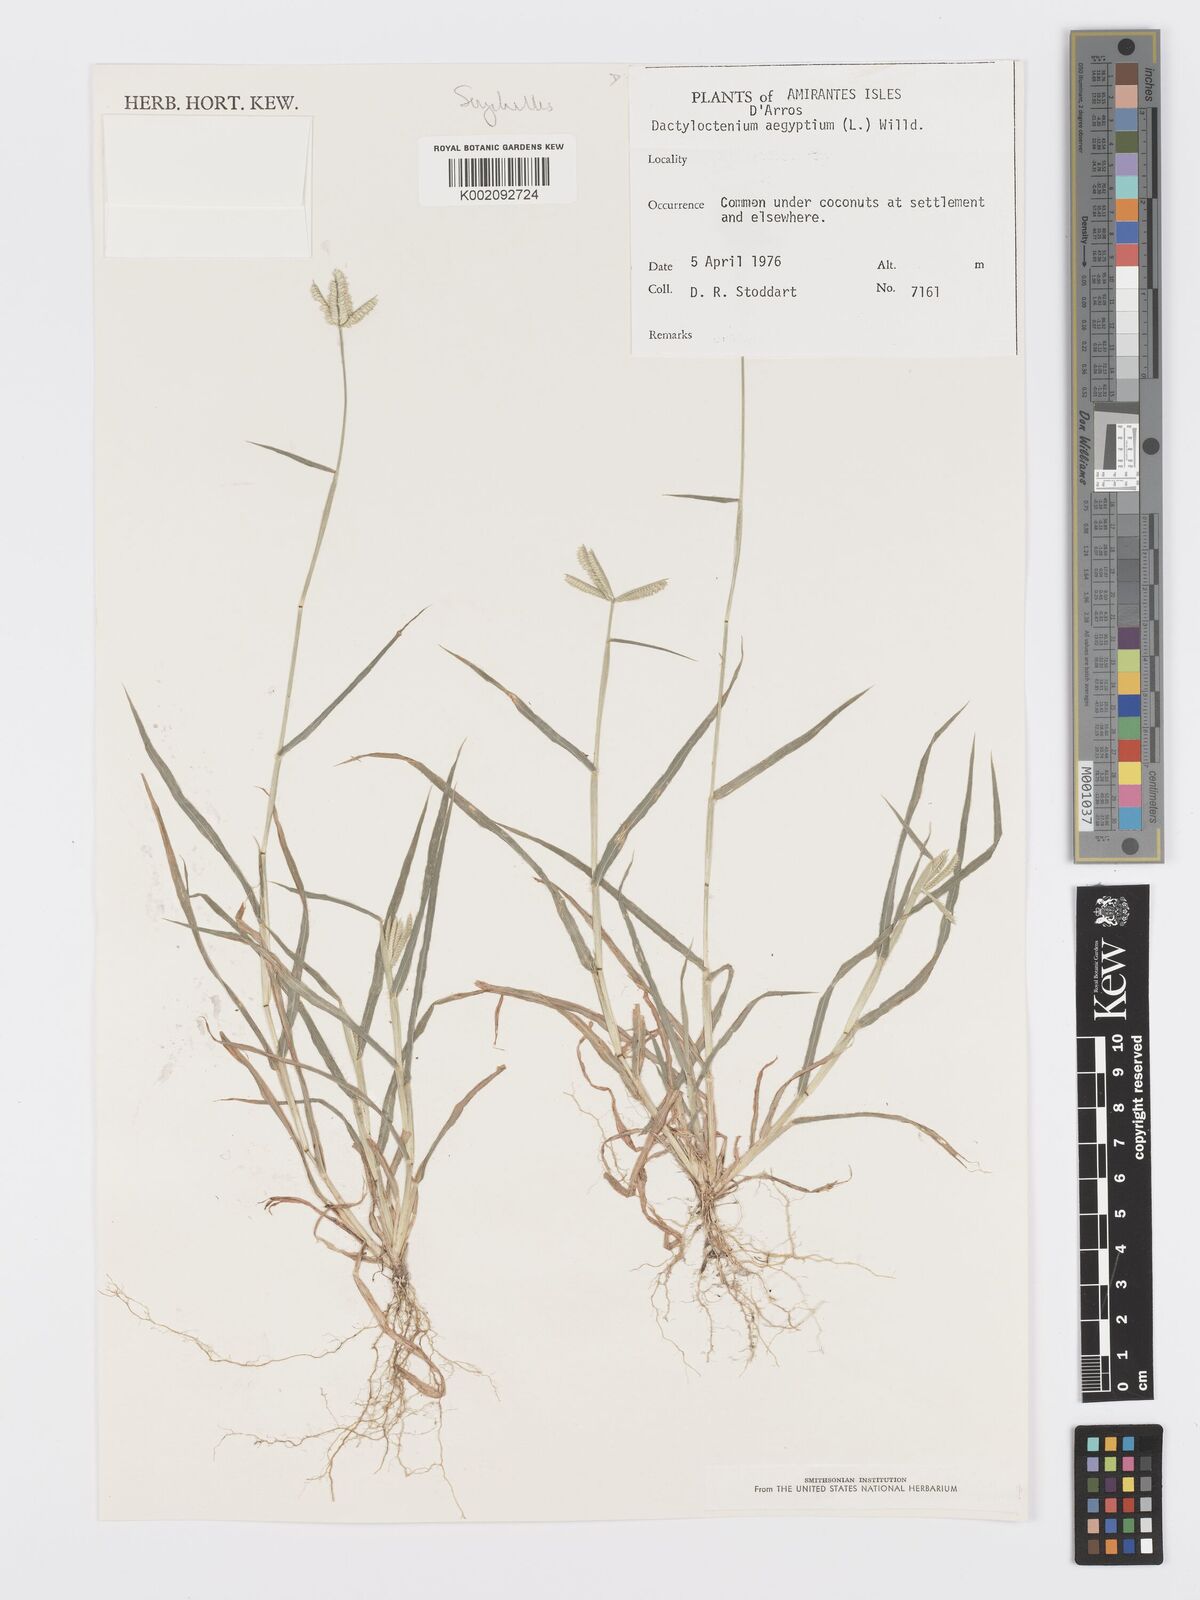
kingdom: Plantae
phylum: Tracheophyta
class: Liliopsida
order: Poales
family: Poaceae
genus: Dactyloctenium
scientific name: Dactyloctenium aegyptium
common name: Egyptian grass
